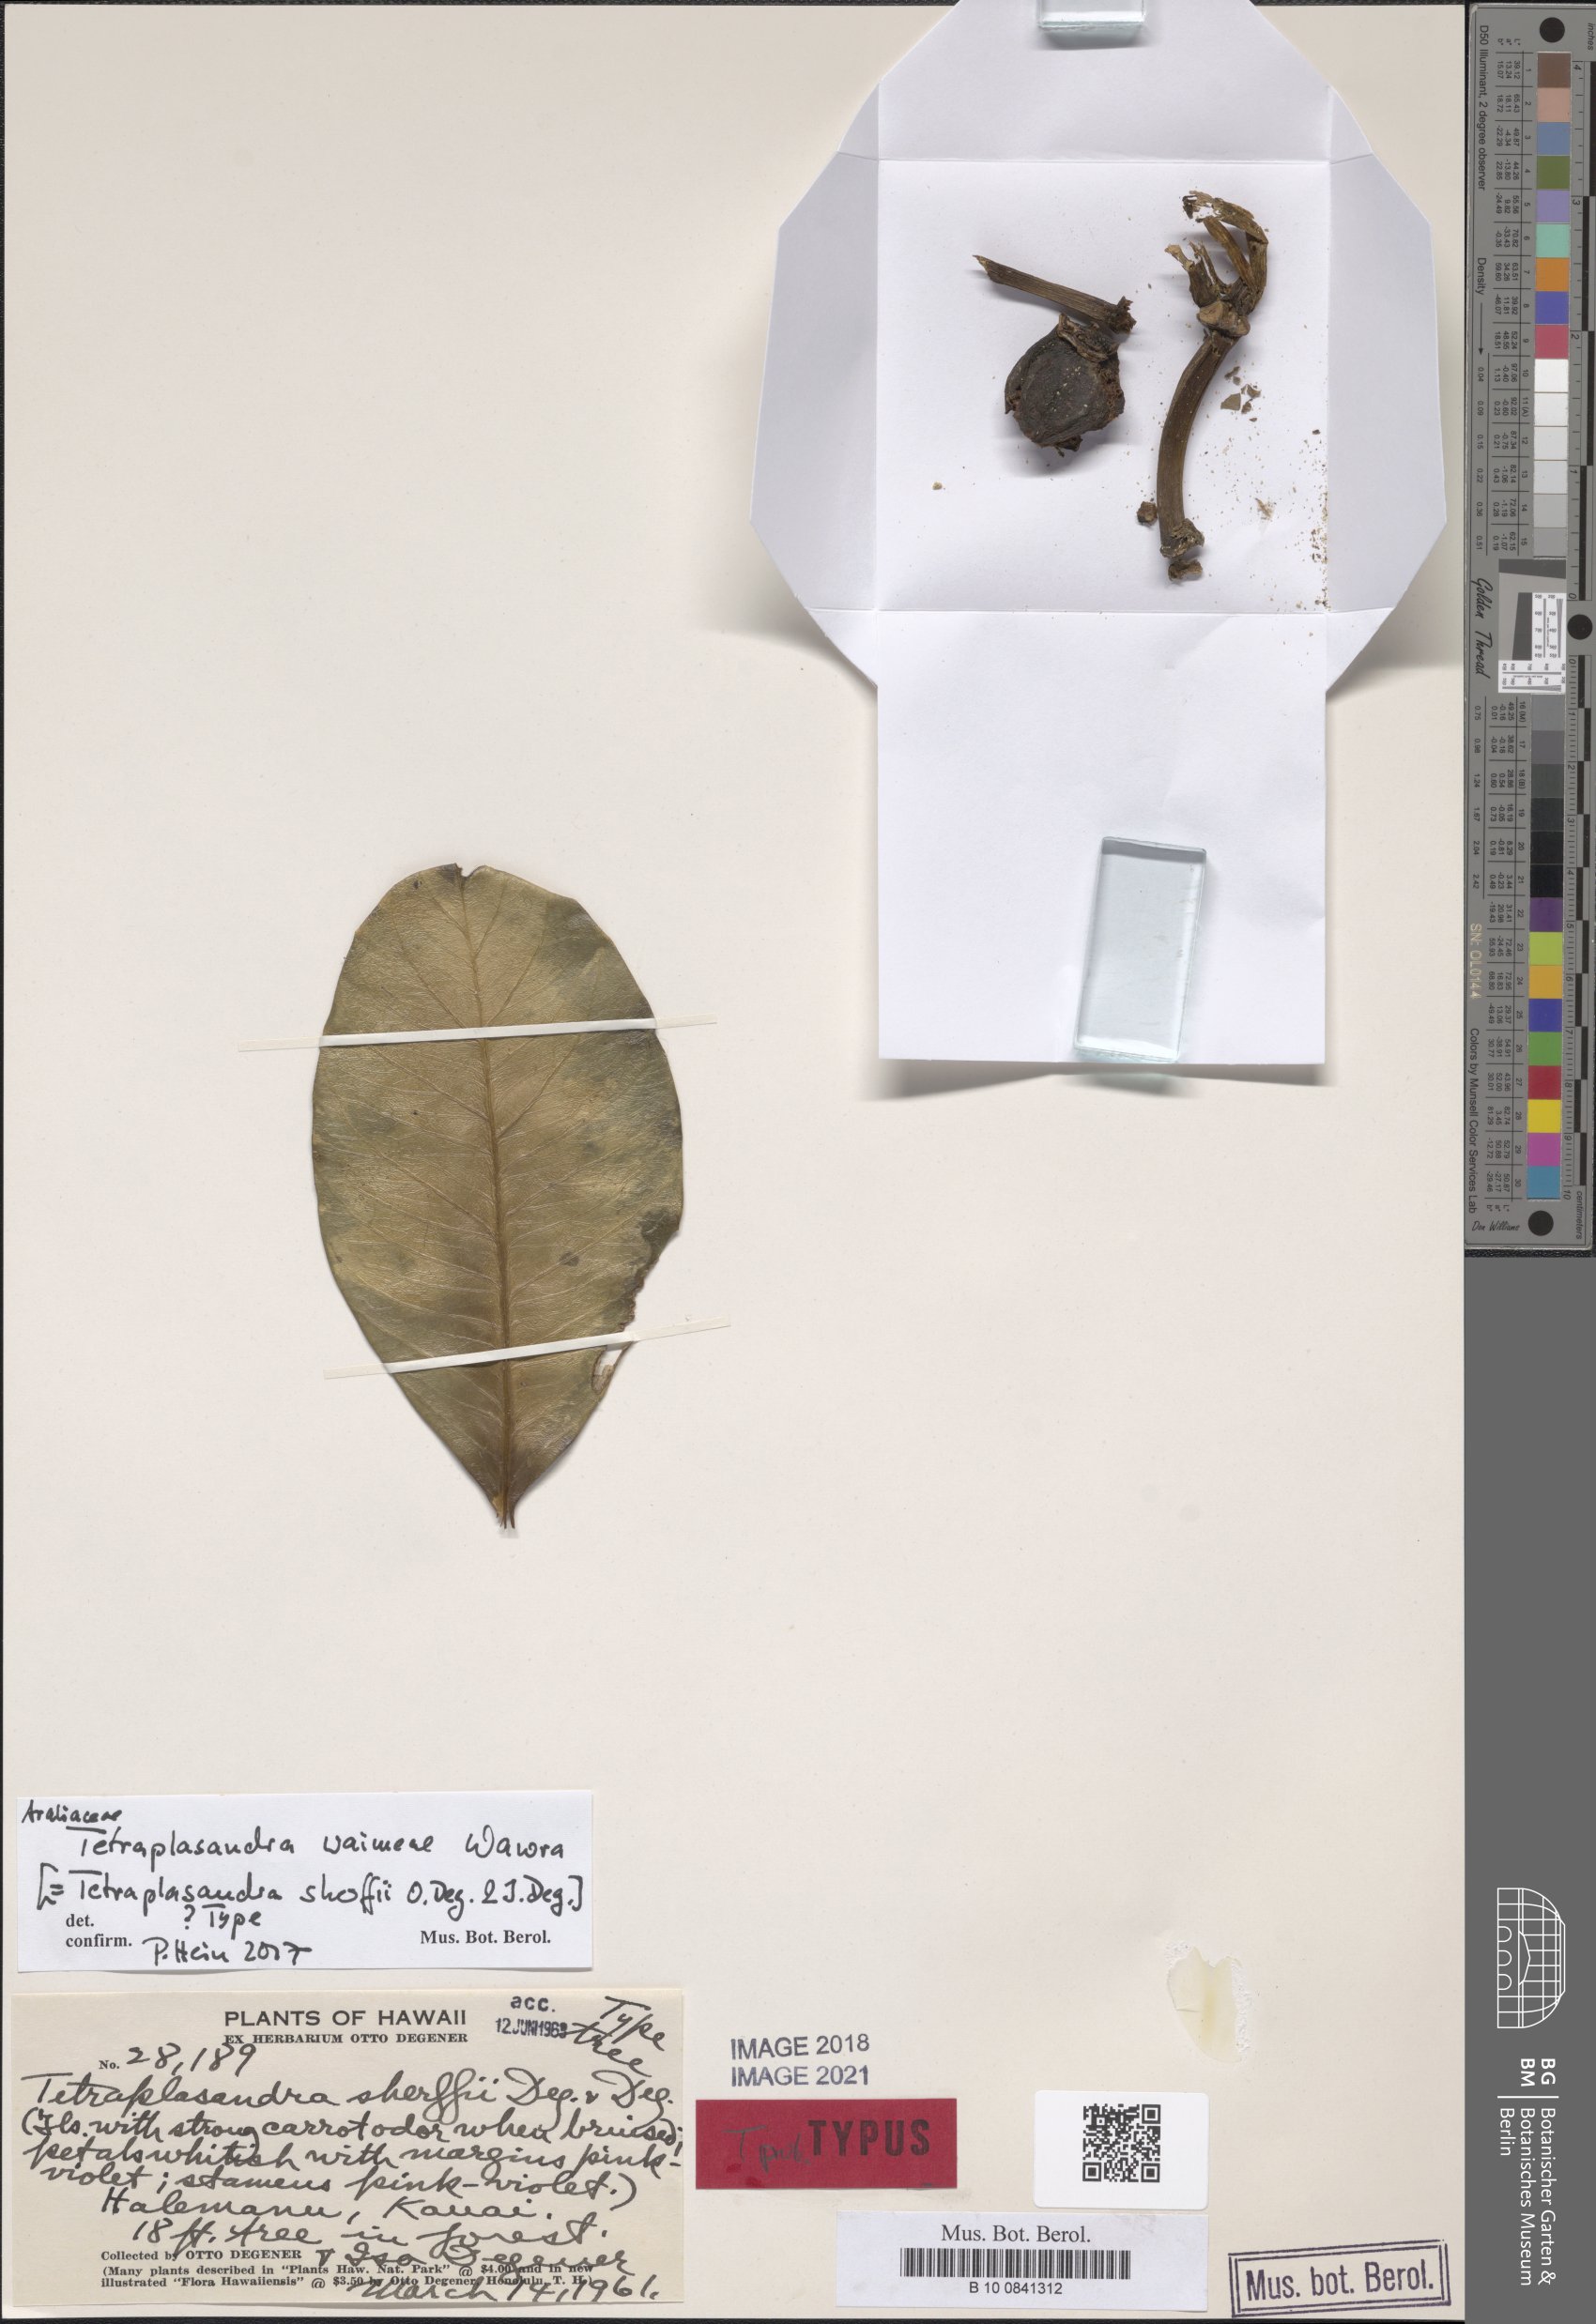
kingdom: Plantae
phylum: Tracheophyta
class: Magnoliopsida
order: Apiales
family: Araliaceae
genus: Polyscias
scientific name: Polyscias waimeae
